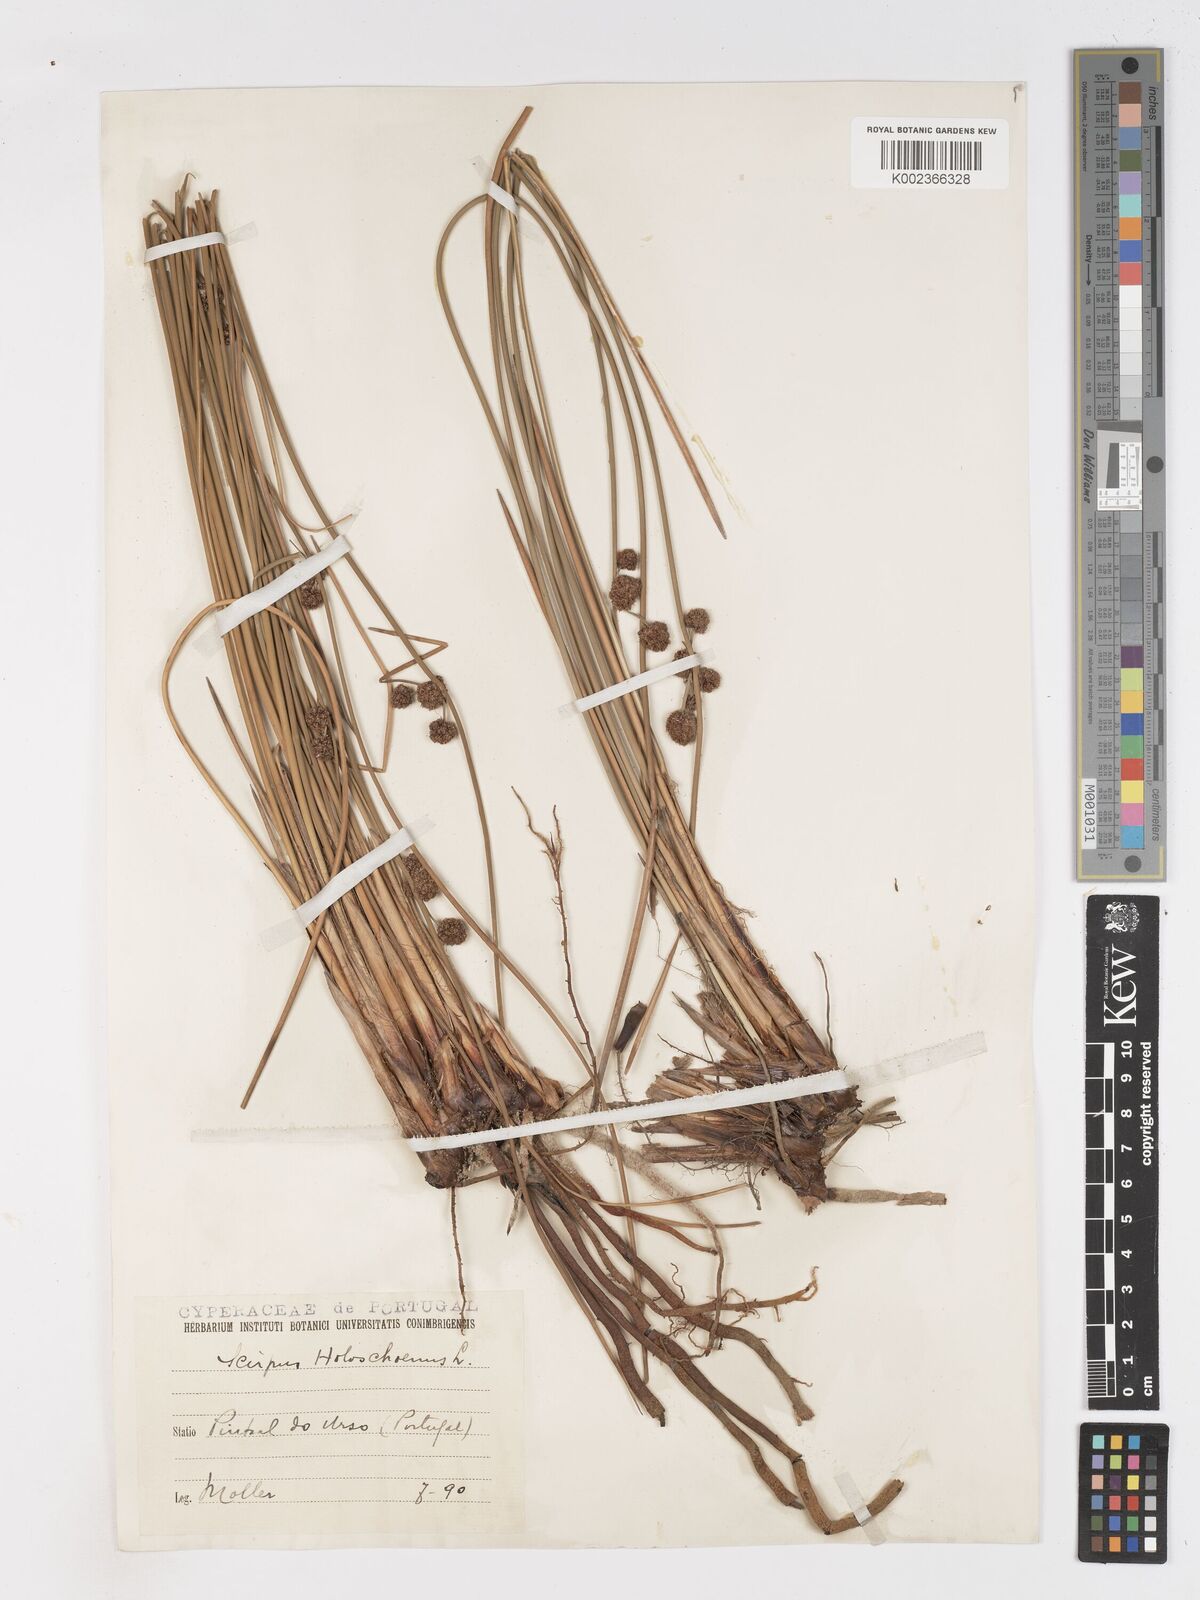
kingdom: Plantae
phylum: Tracheophyta
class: Liliopsida
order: Poales
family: Cyperaceae
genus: Scirpoides
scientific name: Scirpoides holoschoenus
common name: Round-headed club-rush
